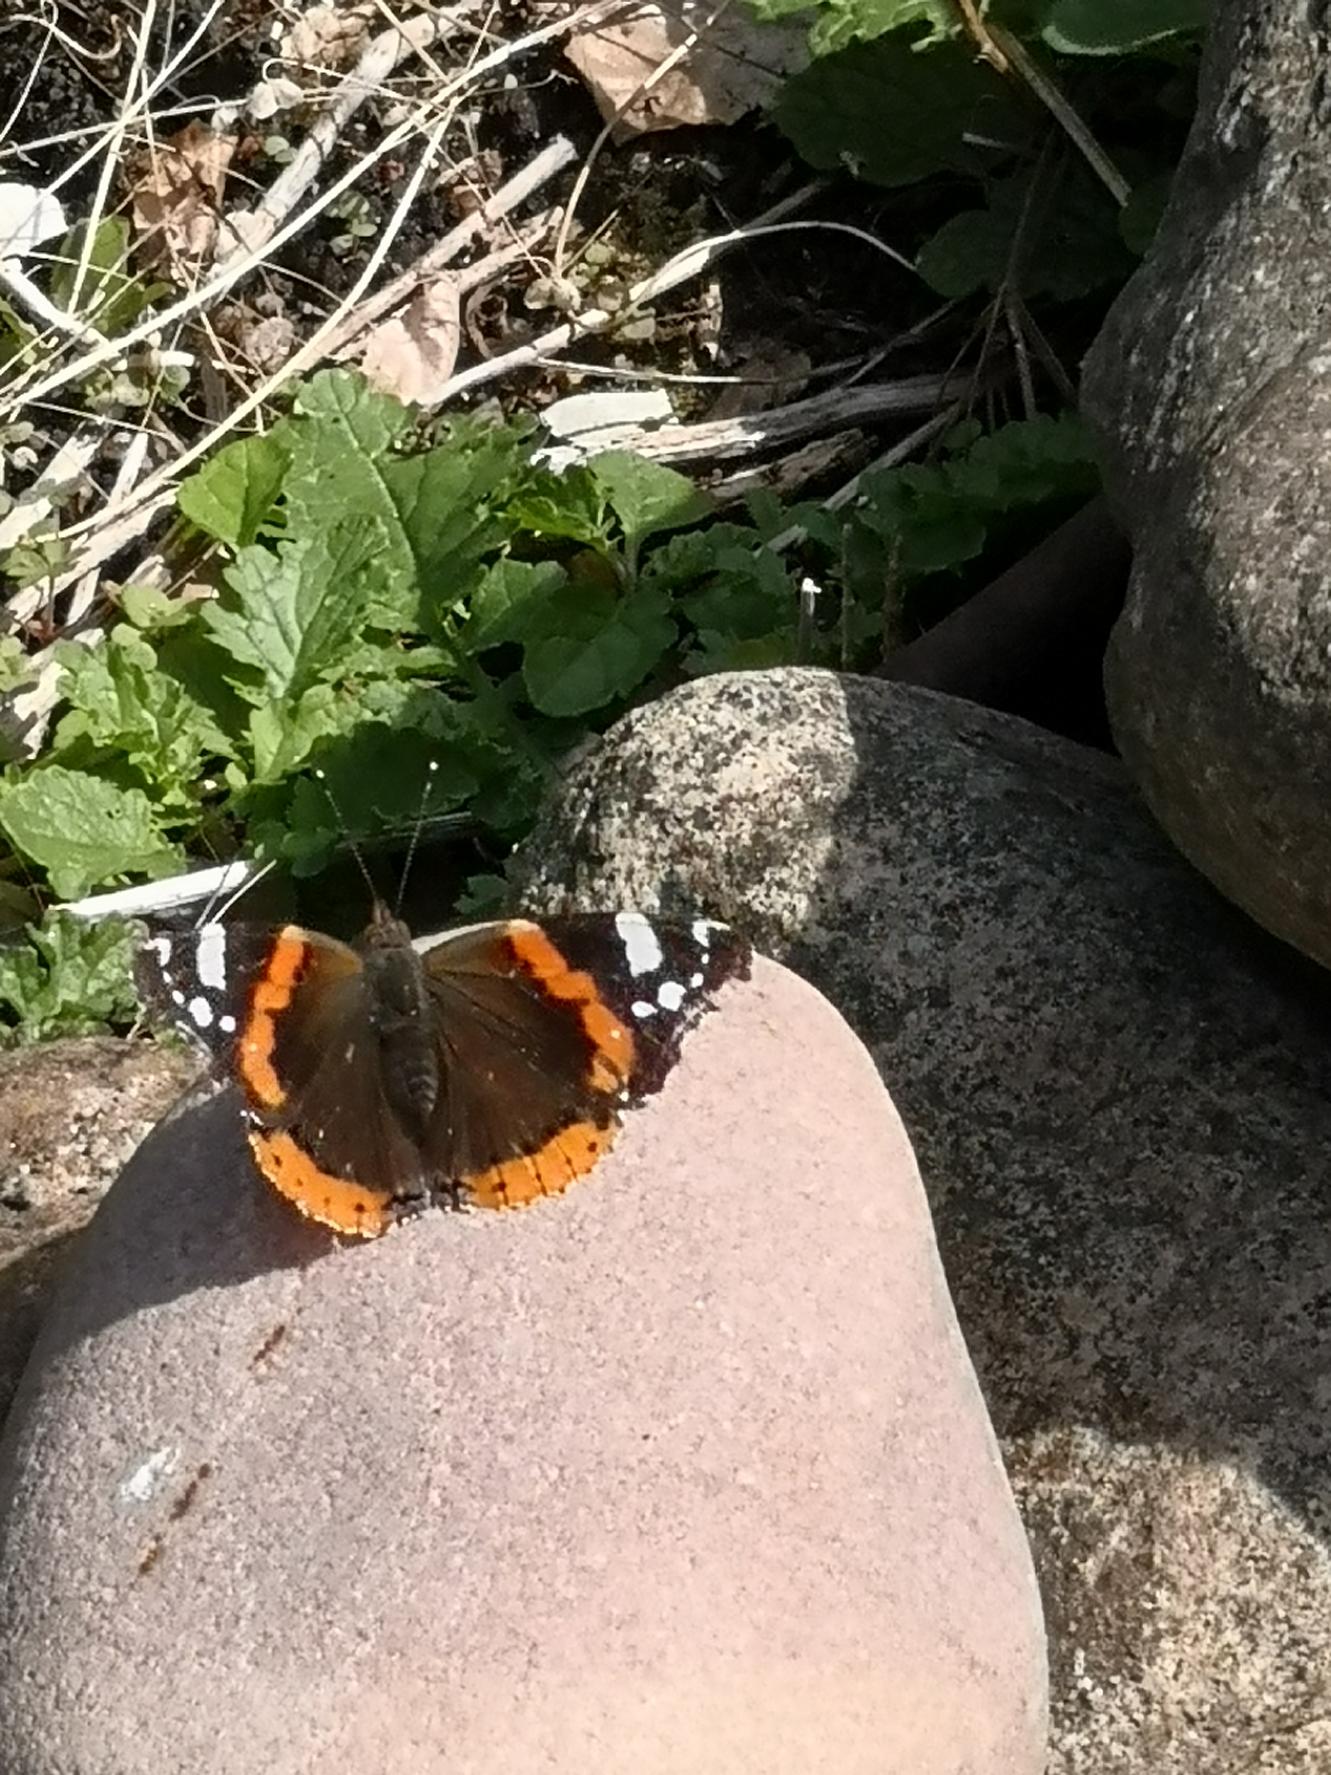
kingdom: Animalia
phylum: Arthropoda
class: Insecta
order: Lepidoptera
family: Nymphalidae
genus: Vanessa
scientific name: Vanessa atalanta
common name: Admiral
